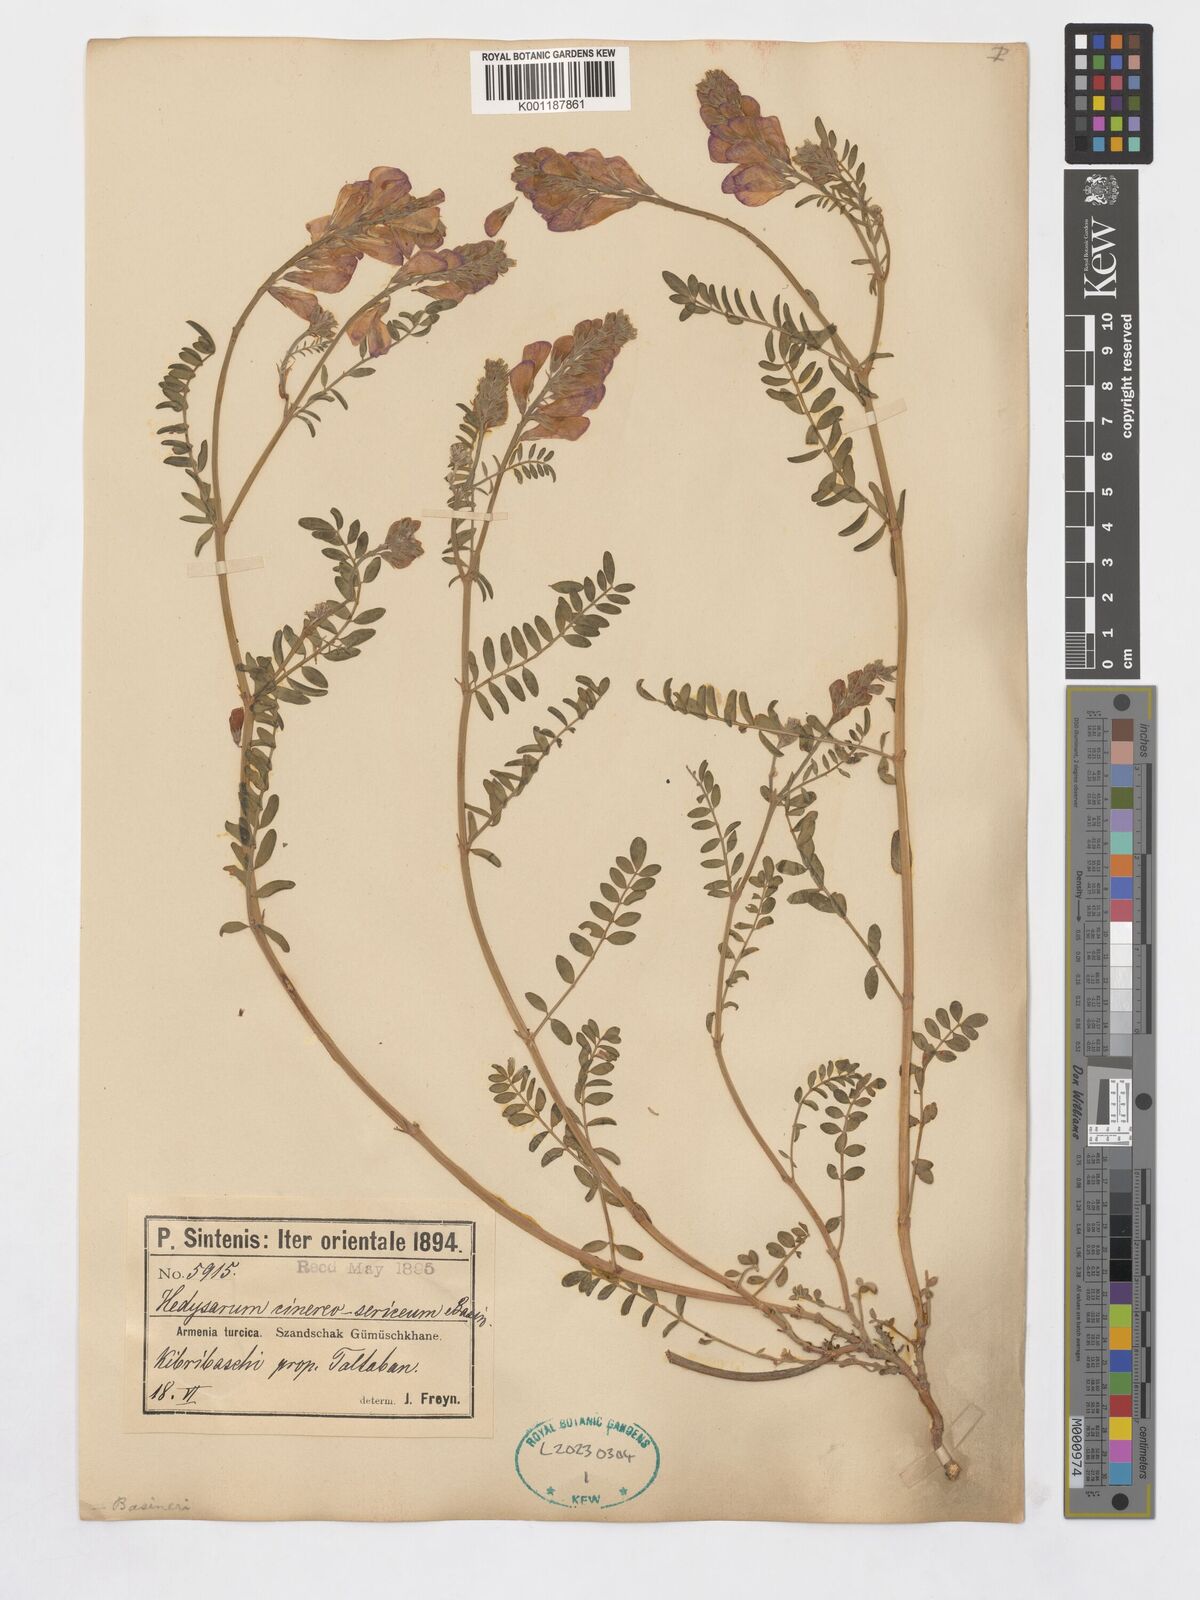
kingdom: Plantae
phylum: Tracheophyta
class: Magnoliopsida
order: Fabales
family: Fabaceae
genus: Hedysarum
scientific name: Hedysarum nitidum
